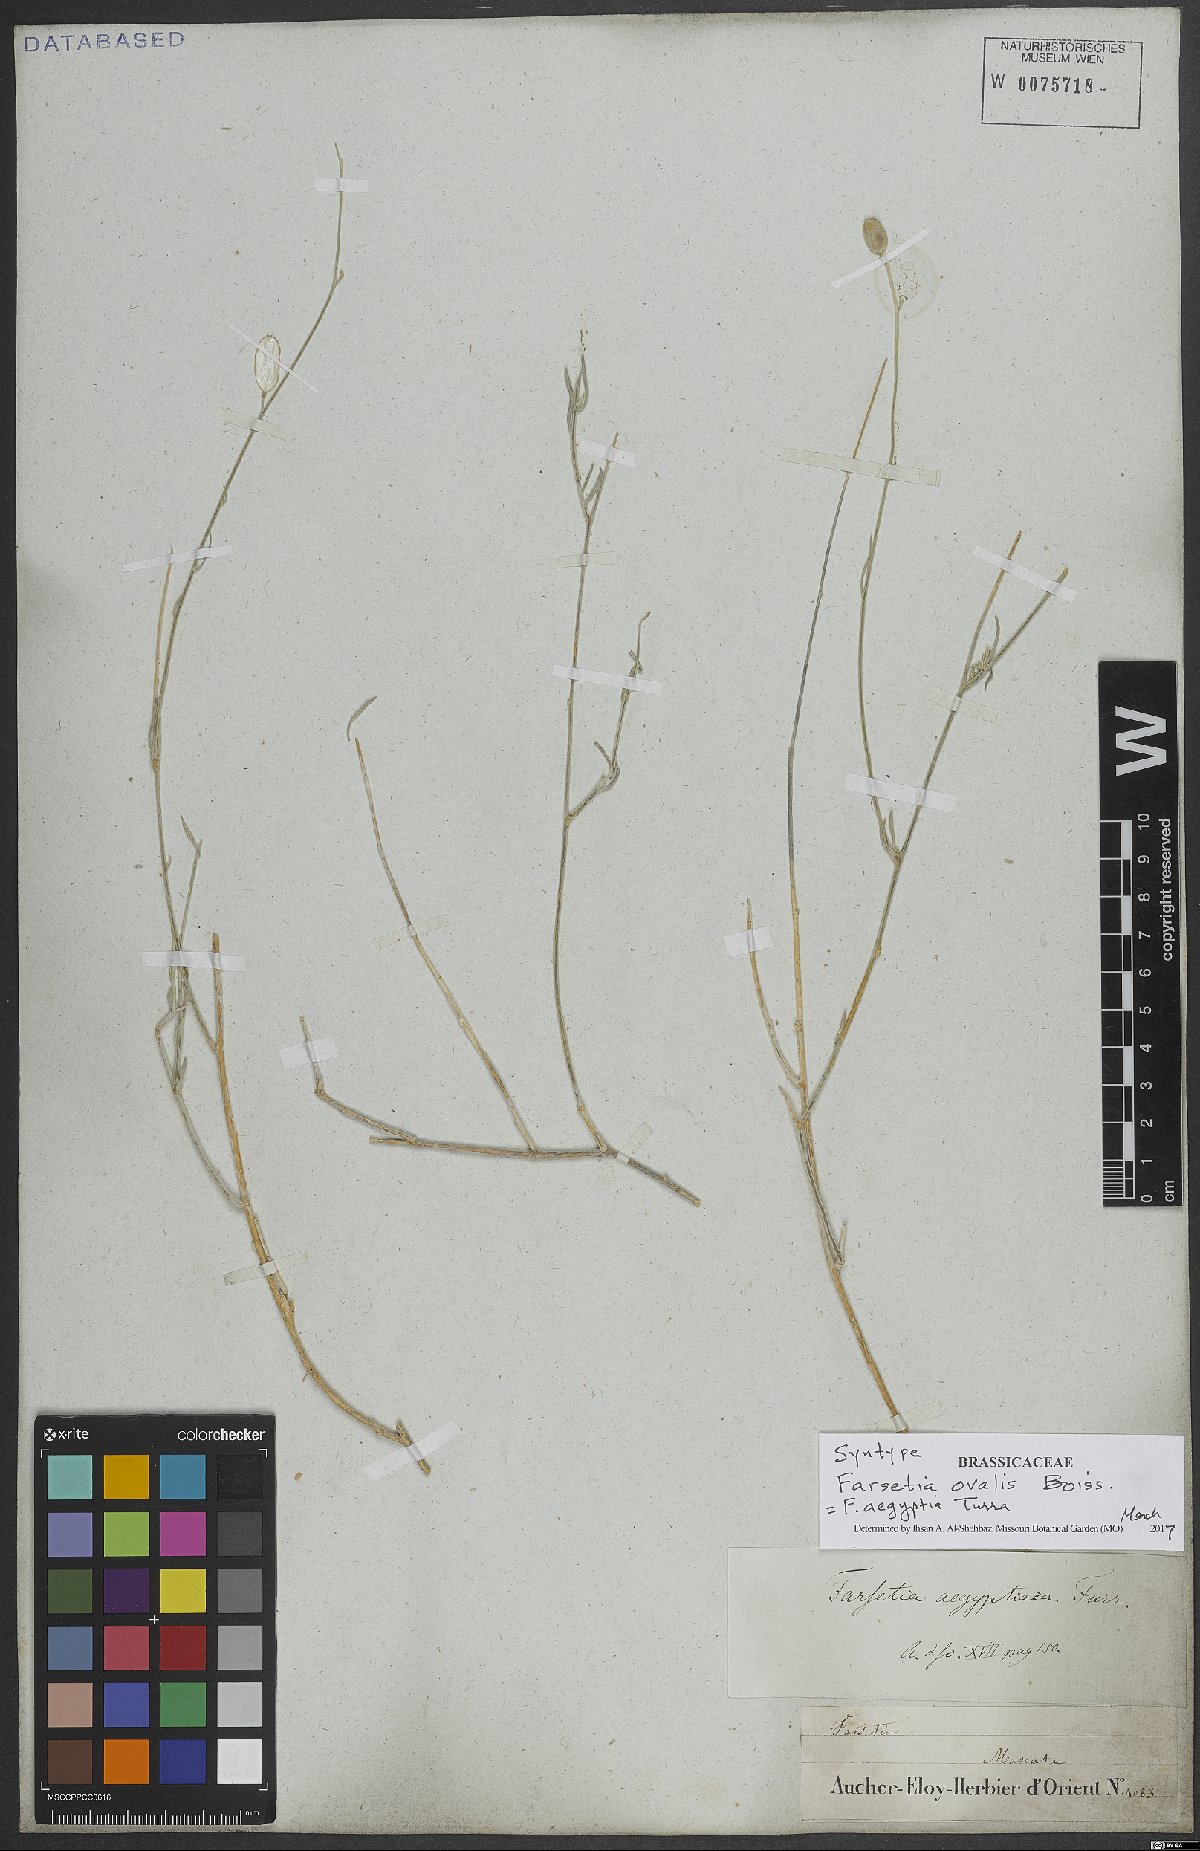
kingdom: Plantae
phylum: Tracheophyta
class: Magnoliopsida
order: Brassicales
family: Brassicaceae
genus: Farsetia
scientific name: Farsetia aegyptia
